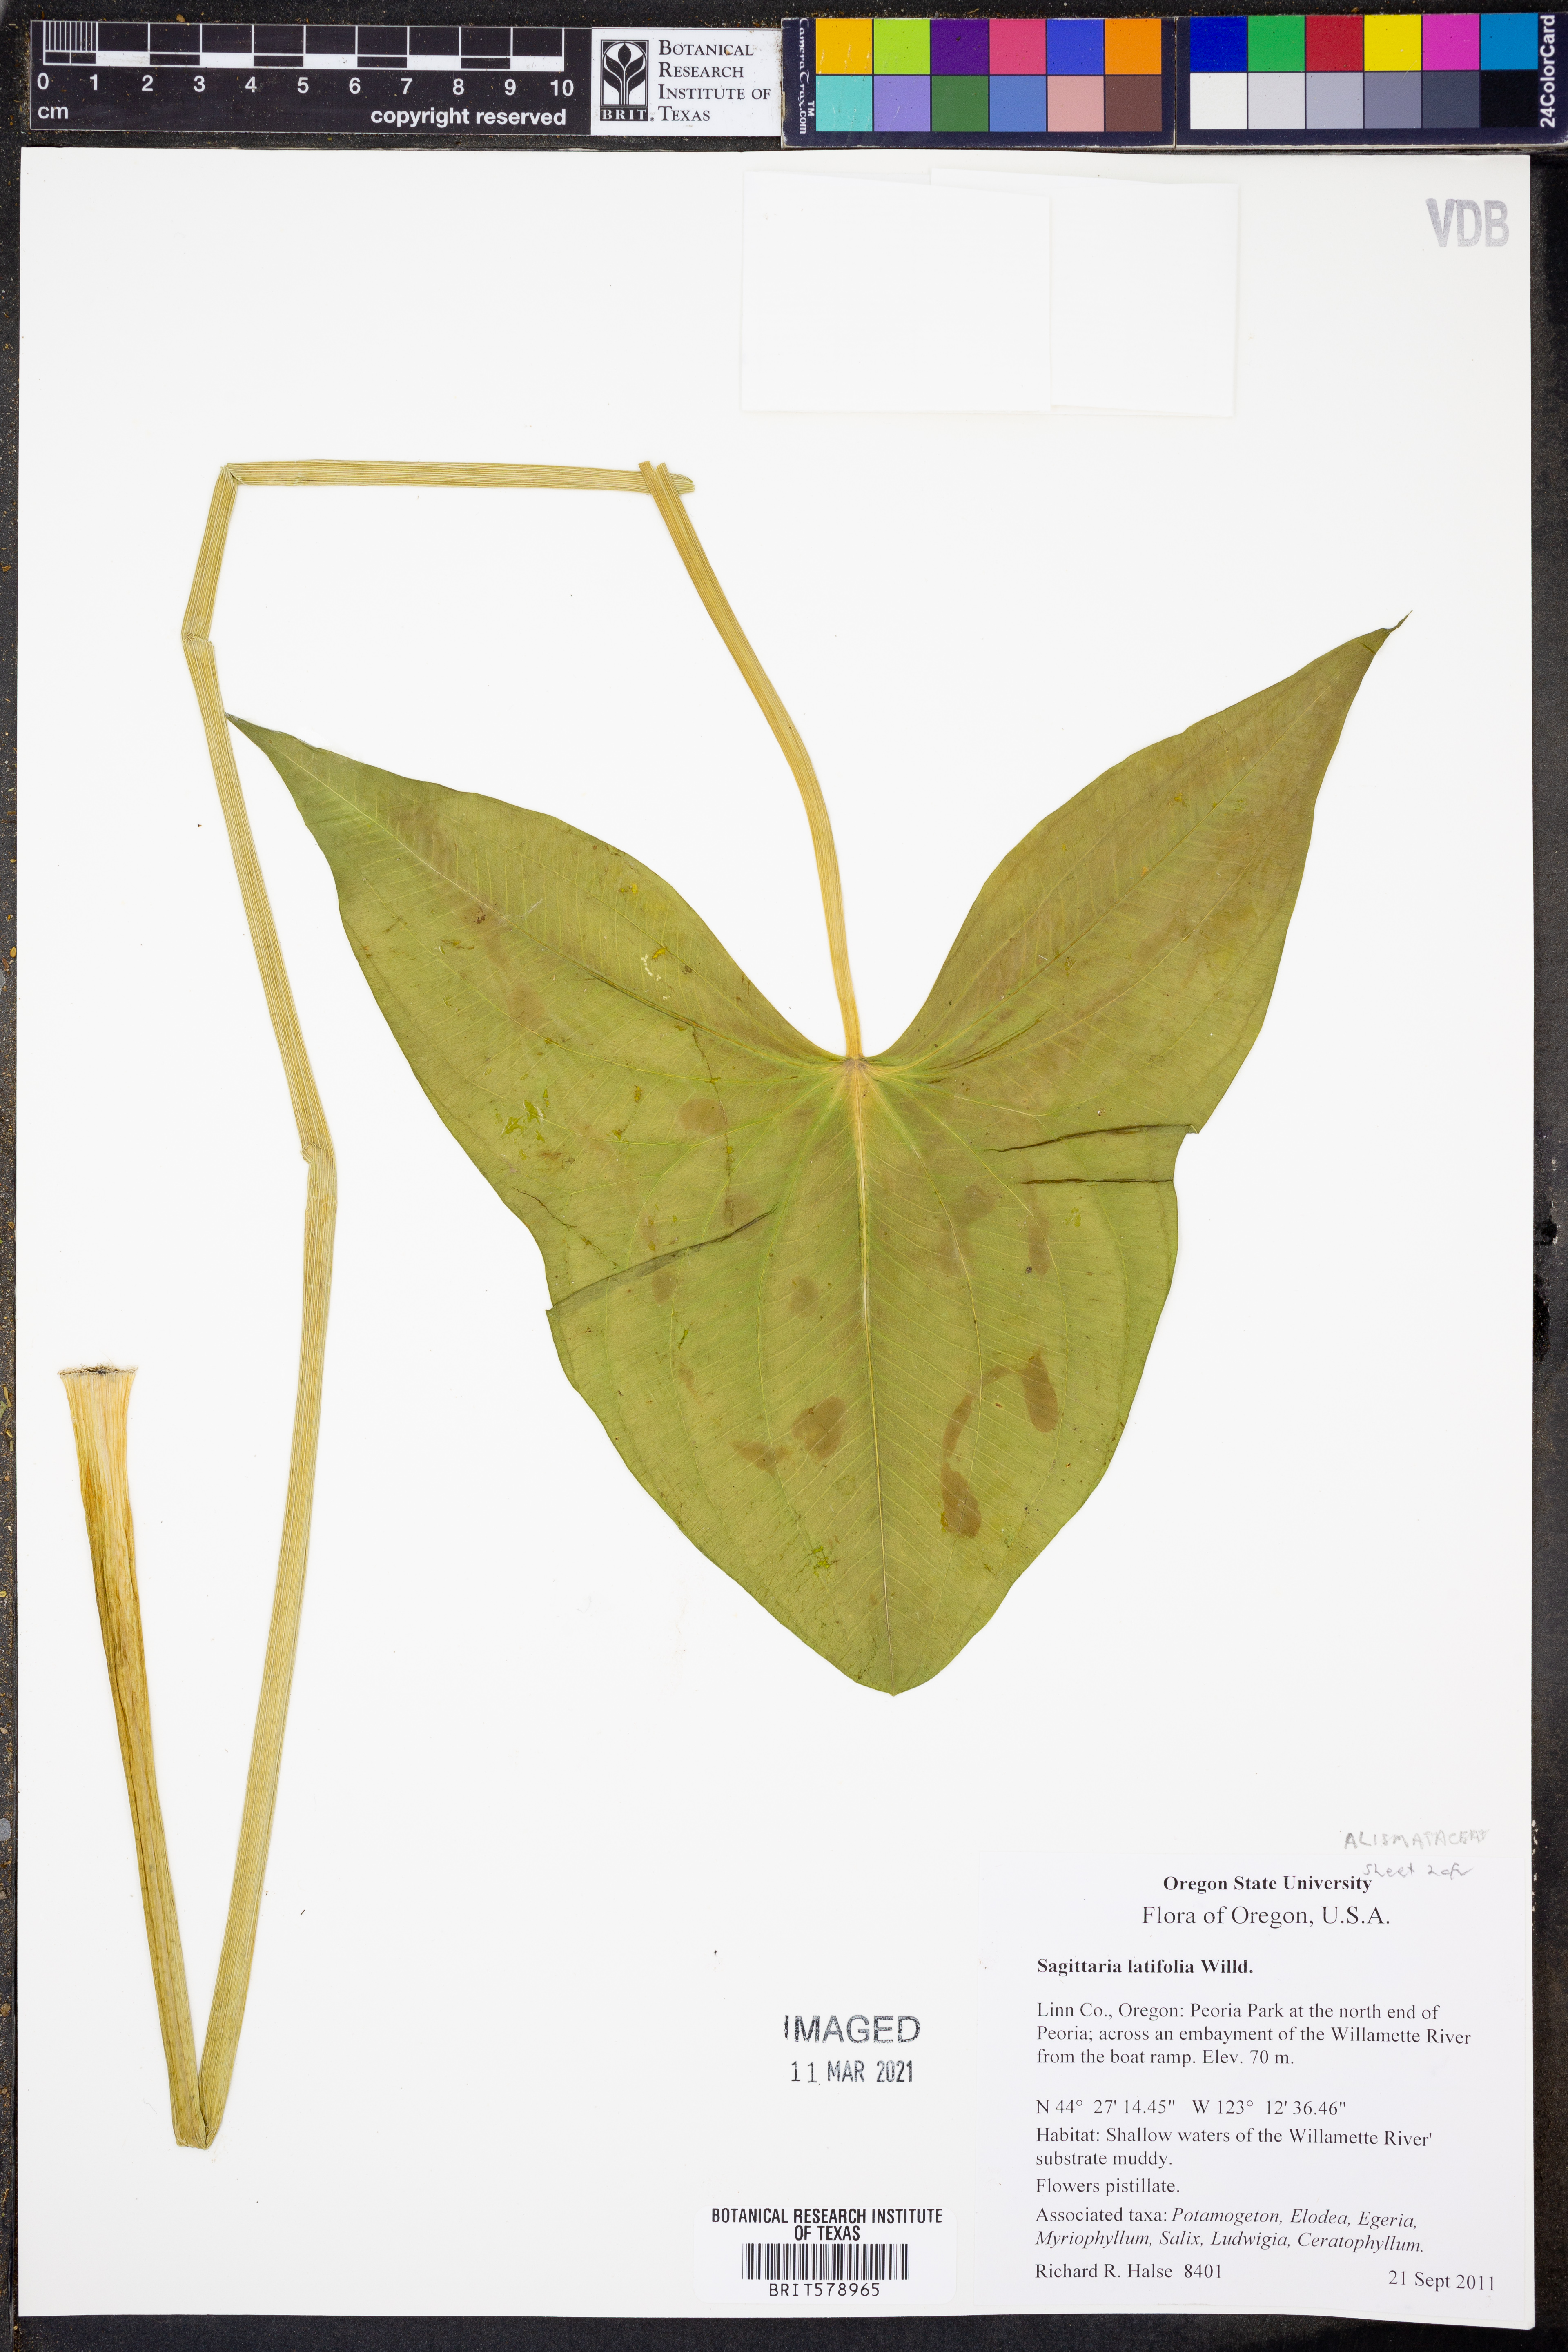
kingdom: Plantae
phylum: Tracheophyta
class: Liliopsida
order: Alismatales
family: Alismataceae
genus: Sagittaria
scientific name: Sagittaria latifolia
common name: Duck-potato
